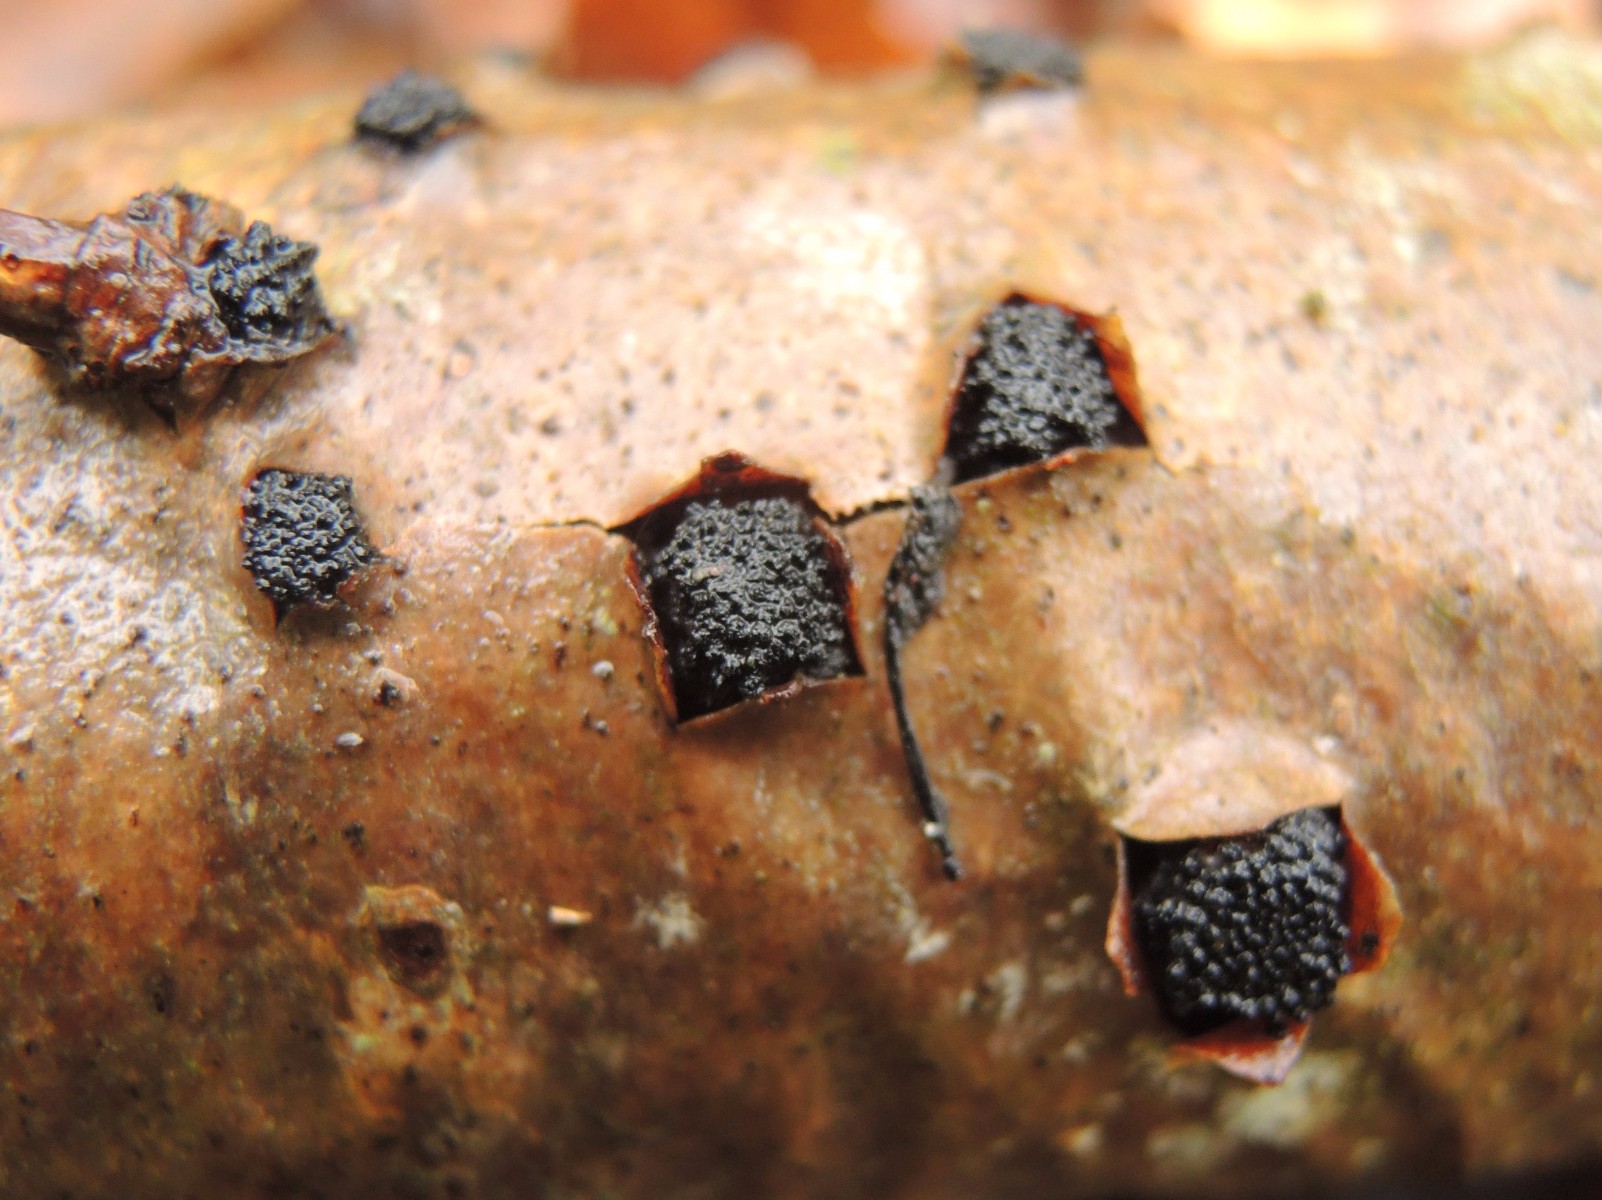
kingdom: Fungi
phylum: Ascomycota
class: Sordariomycetes
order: Xylariales
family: Diatrypaceae
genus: Eutypella
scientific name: Eutypella sorbi
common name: rønne-kulskorpe
